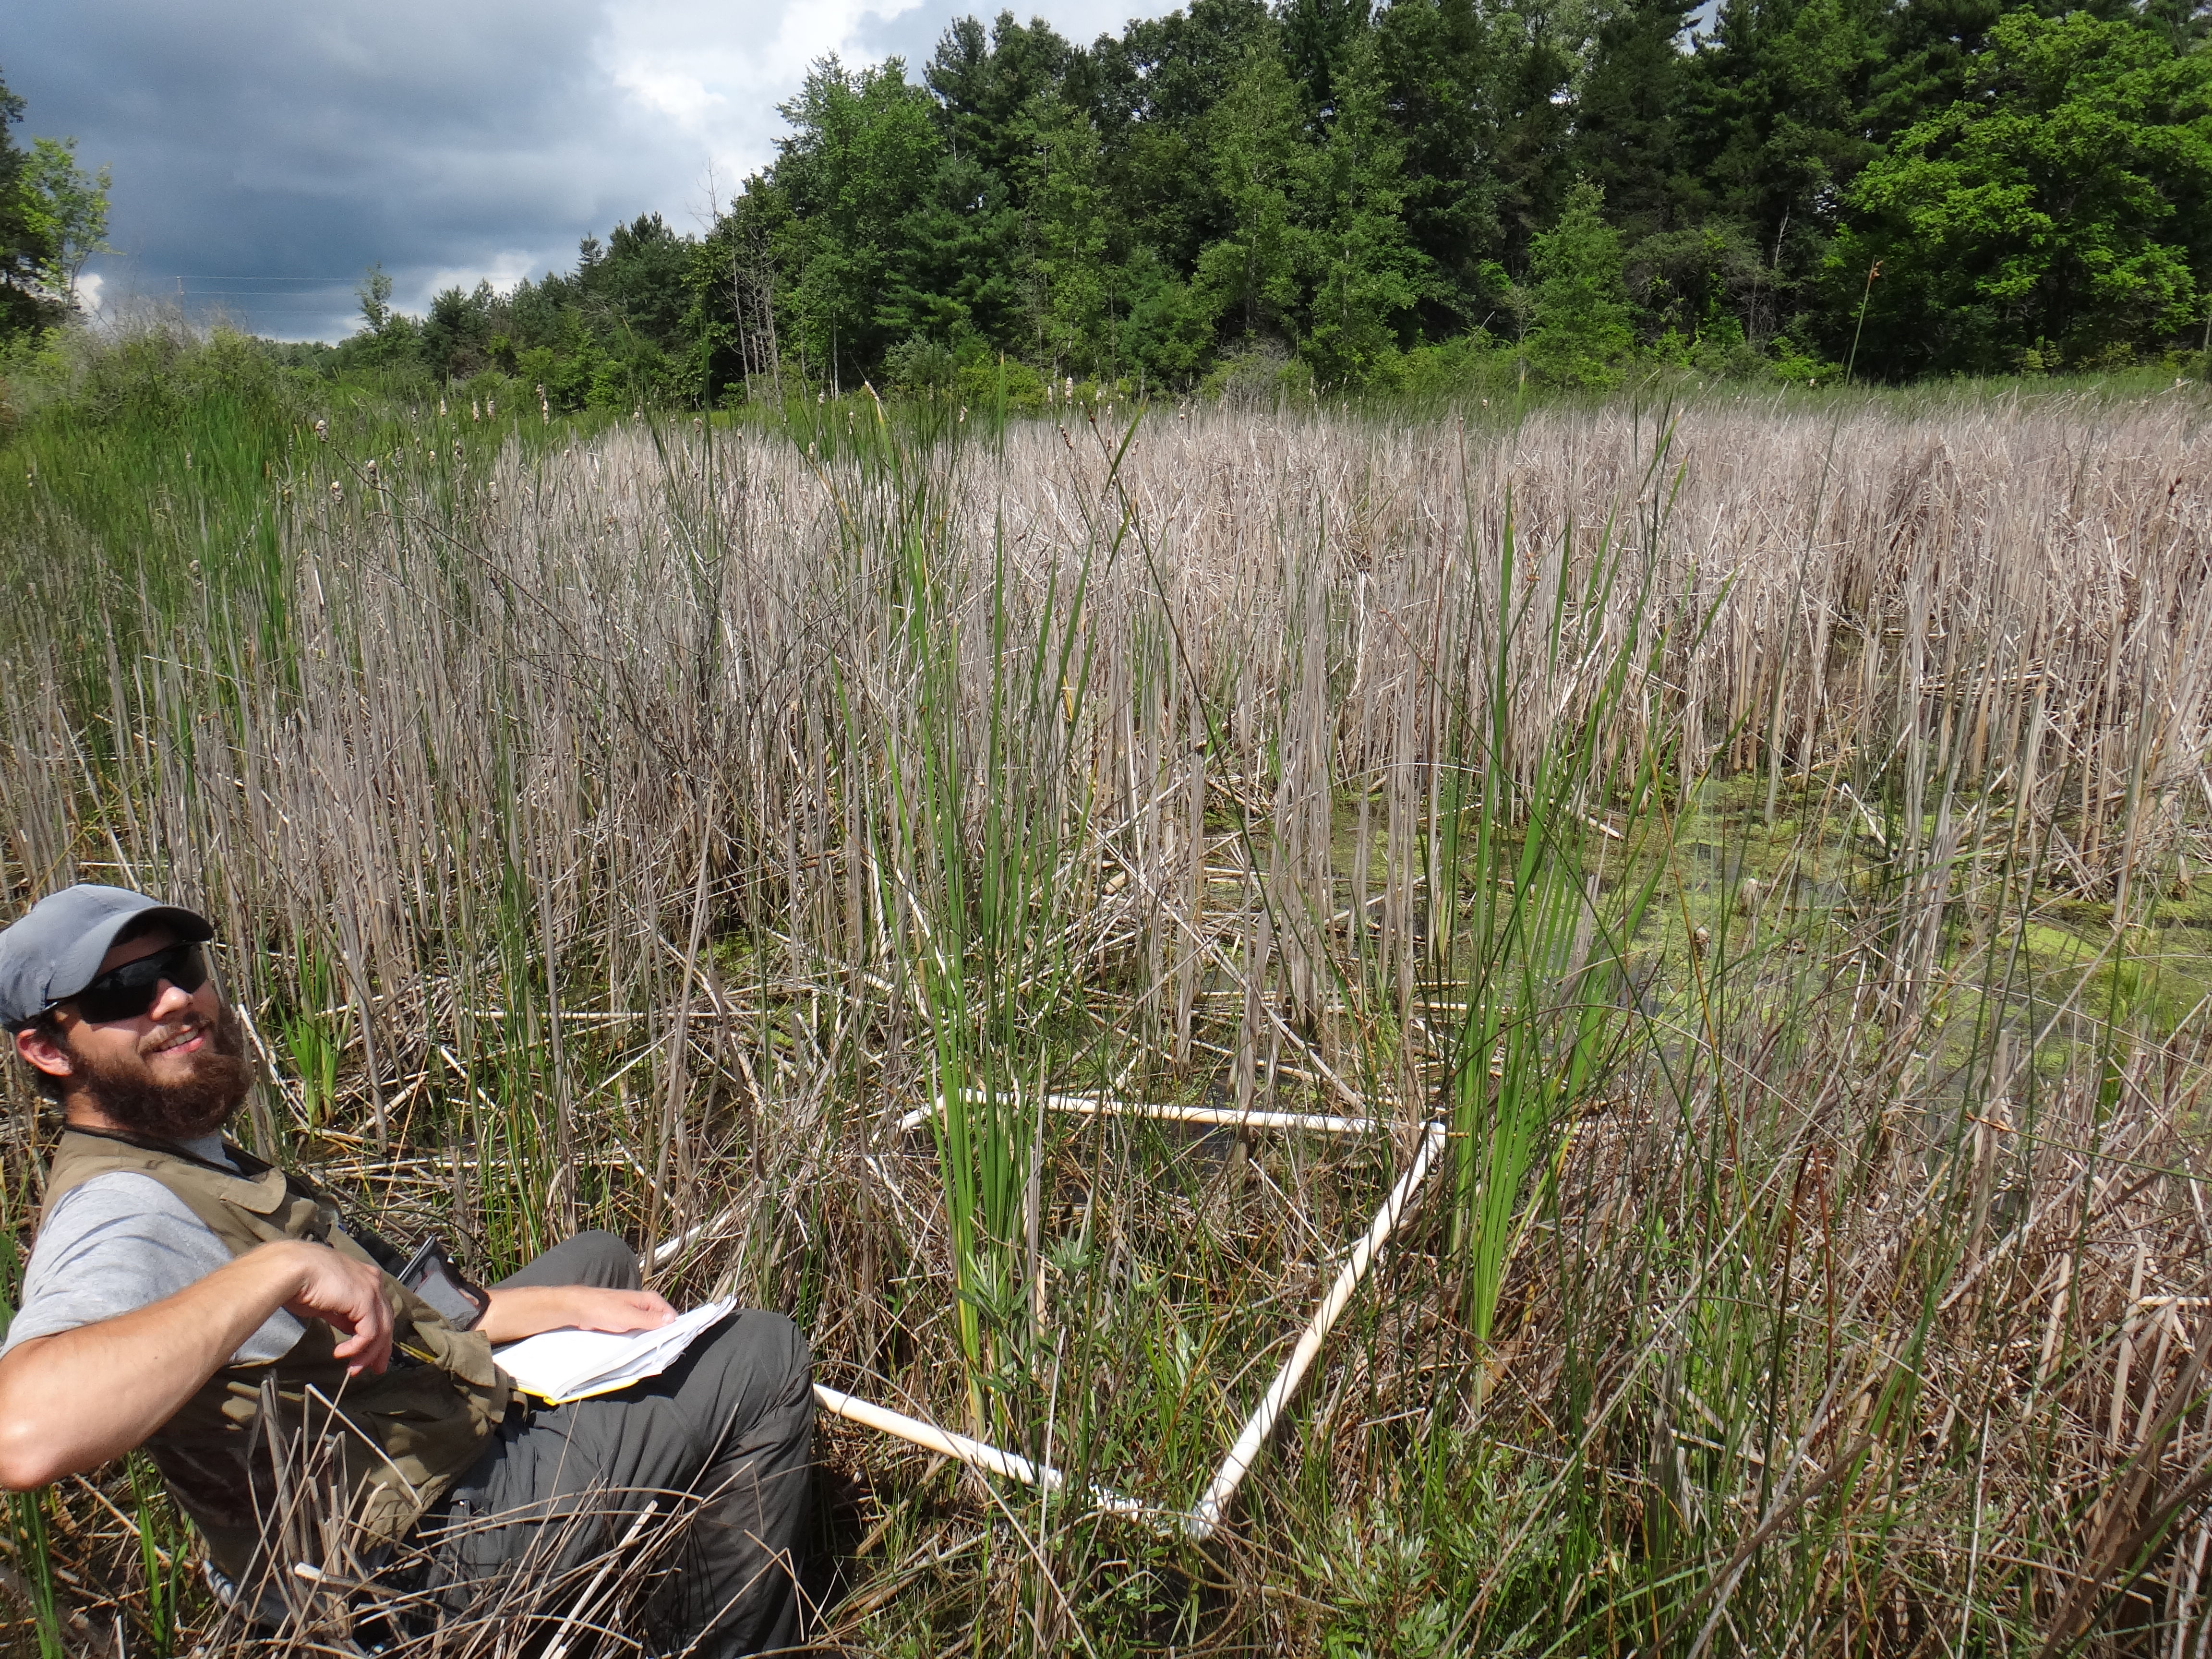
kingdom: Plantae
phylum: Tracheophyta
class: Magnoliopsida
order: Gentianales
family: Rubiaceae
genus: Galium
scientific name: Galium trifidum
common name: Small bedstraw
